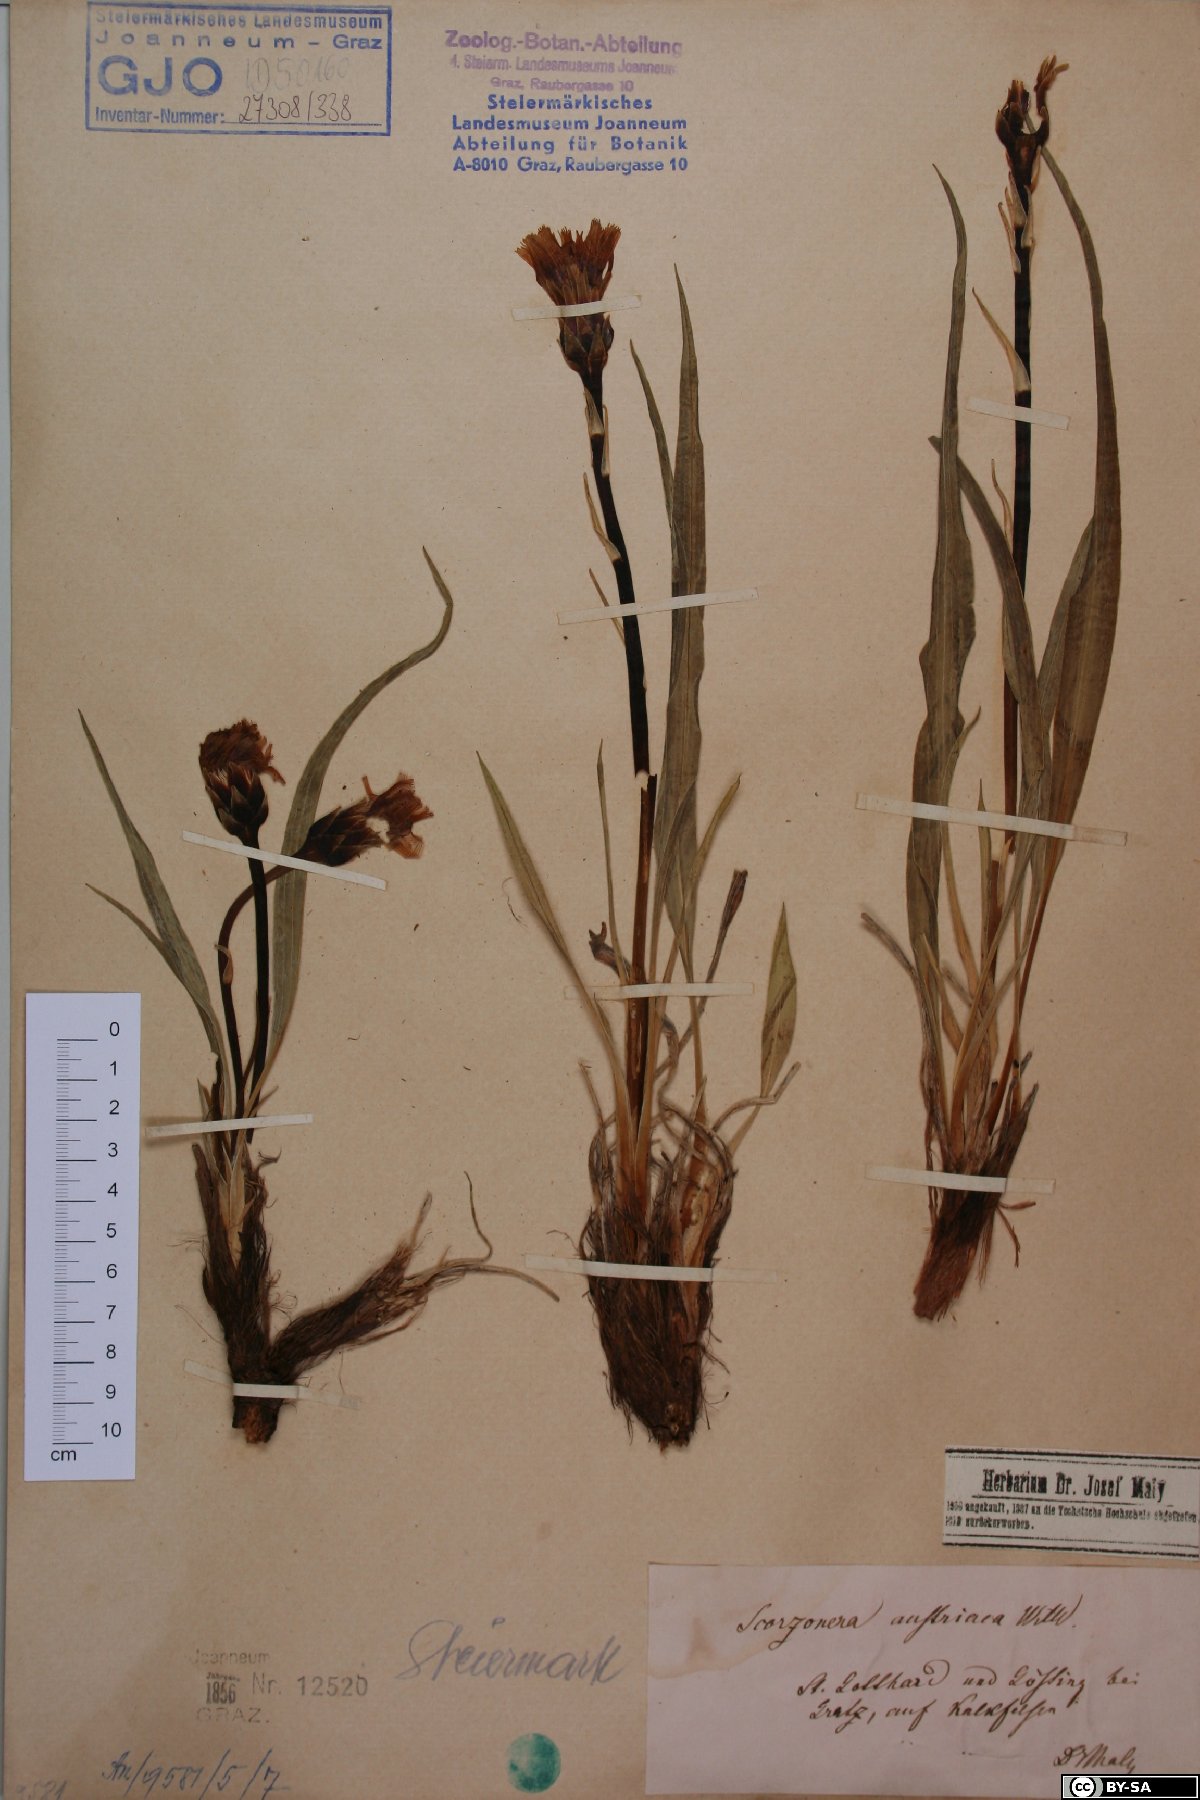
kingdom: Plantae
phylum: Tracheophyta
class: Magnoliopsida
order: Asterales
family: Asteraceae
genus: Takhtajaniantha
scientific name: Takhtajaniantha austriaca
